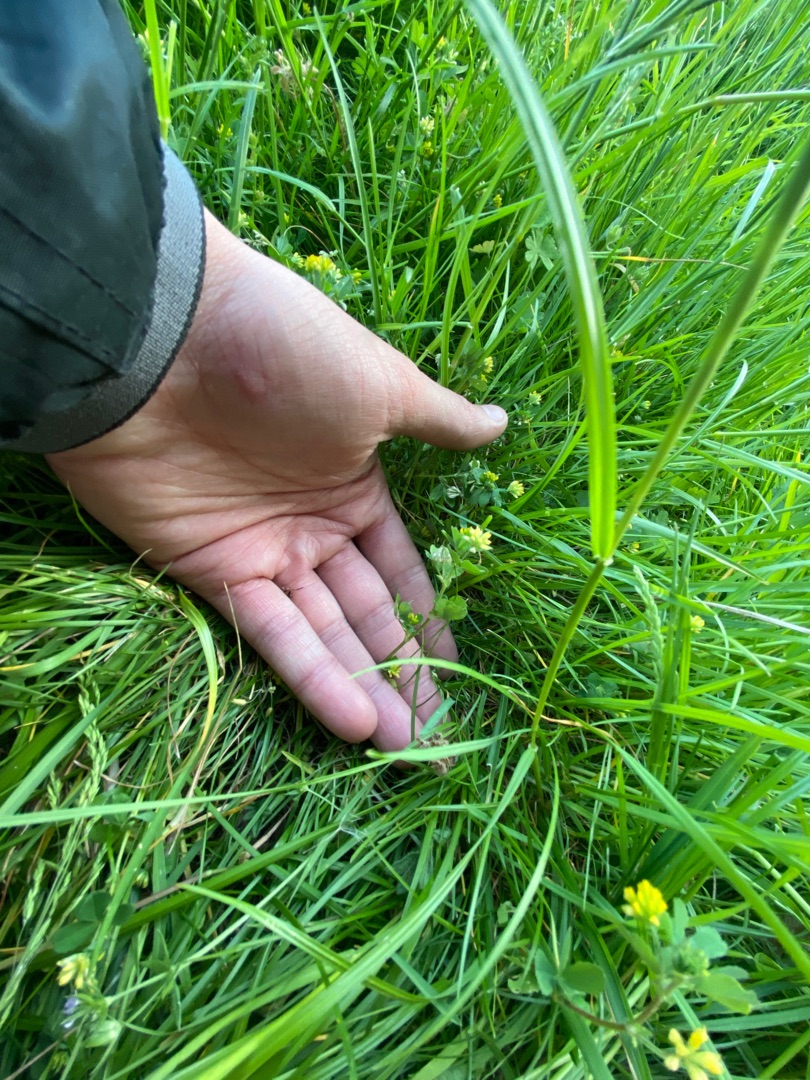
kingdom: Plantae
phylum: Tracheophyta
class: Magnoliopsida
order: Fabales
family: Fabaceae
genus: Trifolium
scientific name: Trifolium dubium
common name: Fin kløver
